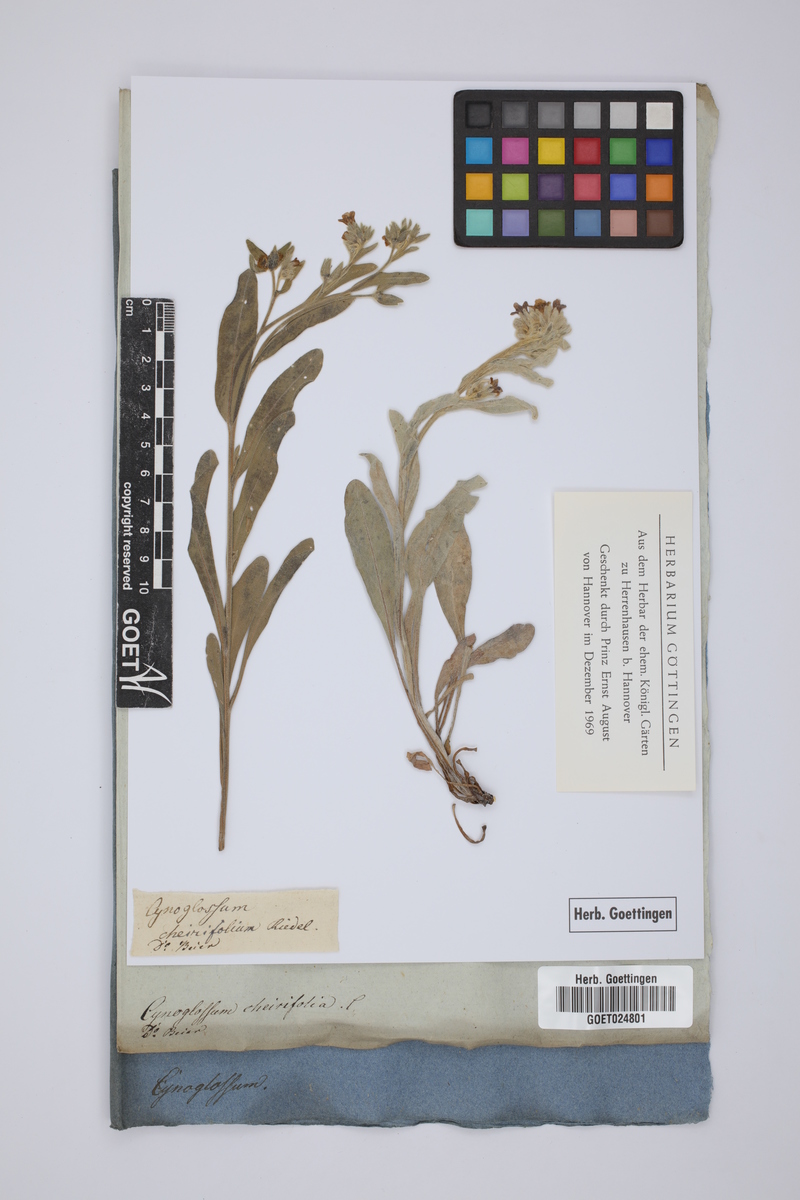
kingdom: Plantae
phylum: Tracheophyta
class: Magnoliopsida
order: Boraginales
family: Boraginaceae
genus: Pardoglossum
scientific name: Pardoglossum cheirifolium
